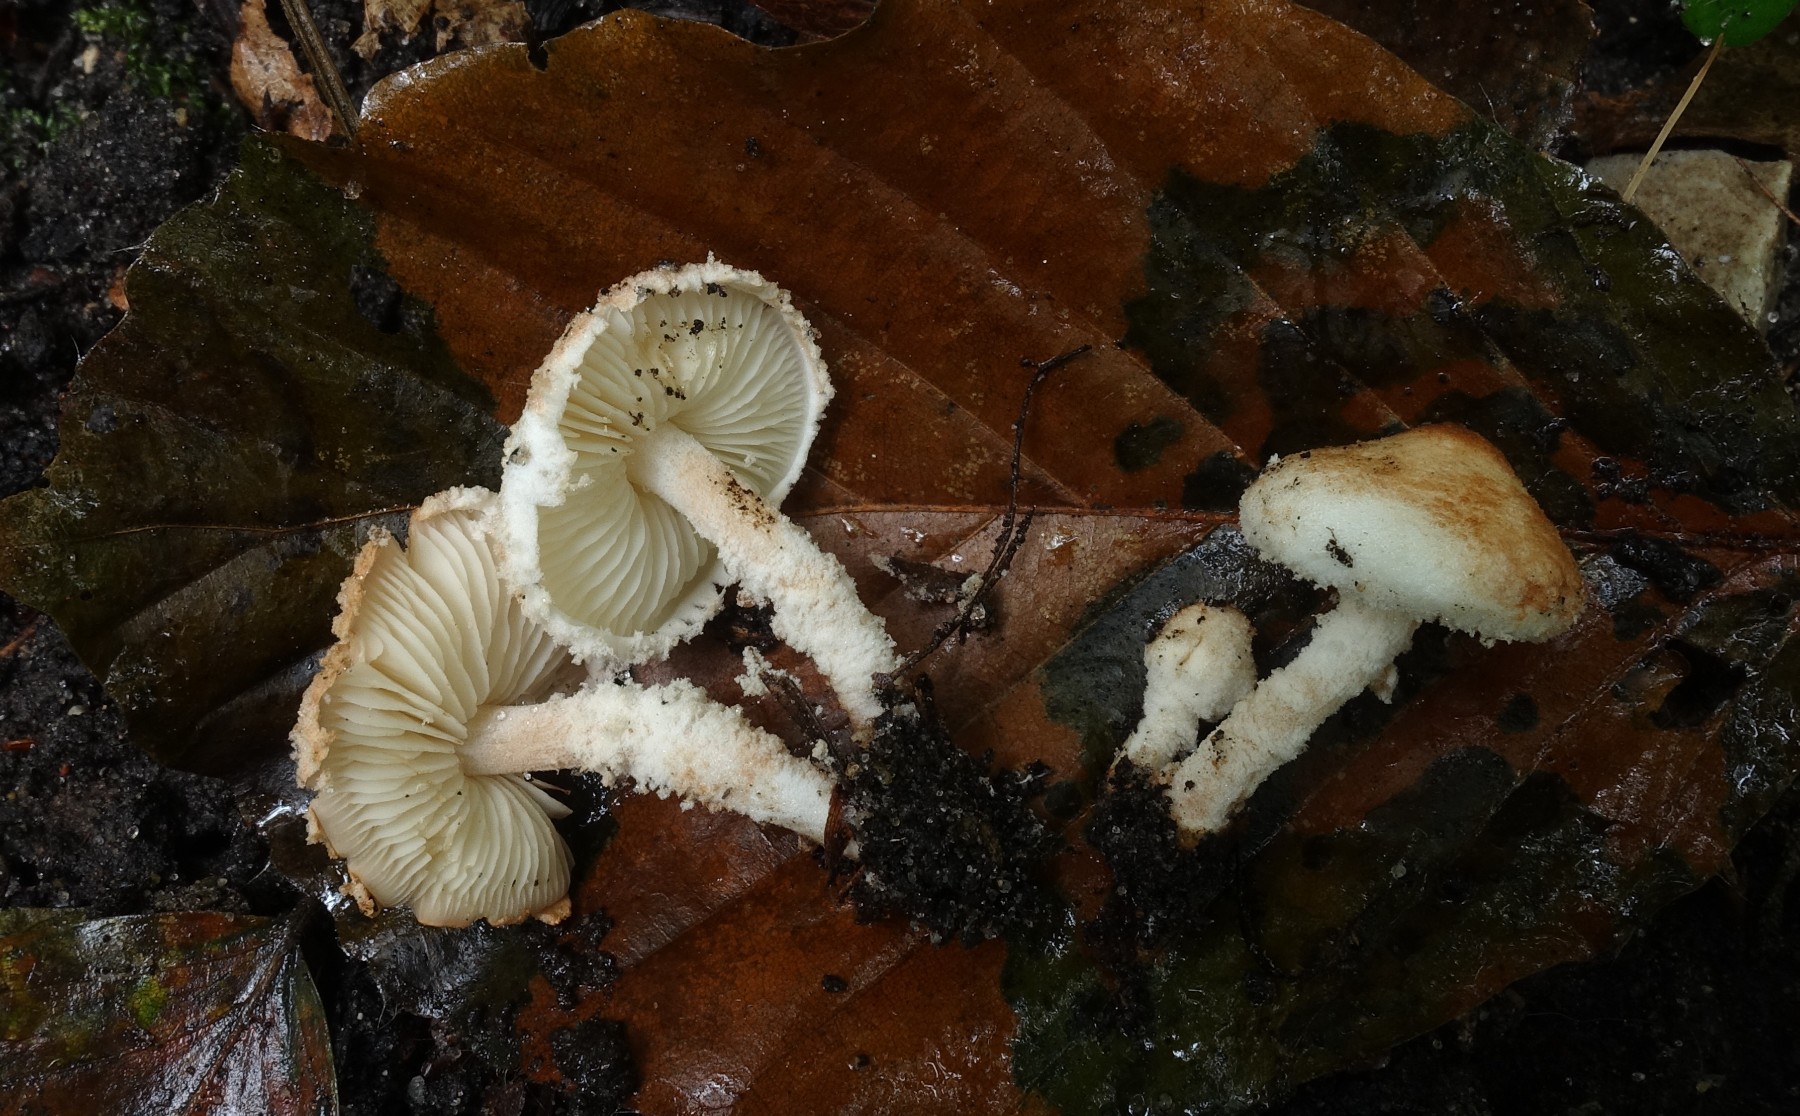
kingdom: Fungi
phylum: Basidiomycota
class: Agaricomycetes
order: Agaricales
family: Agaricaceae
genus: Cystolepiota
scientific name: Cystolepiota hetieri
